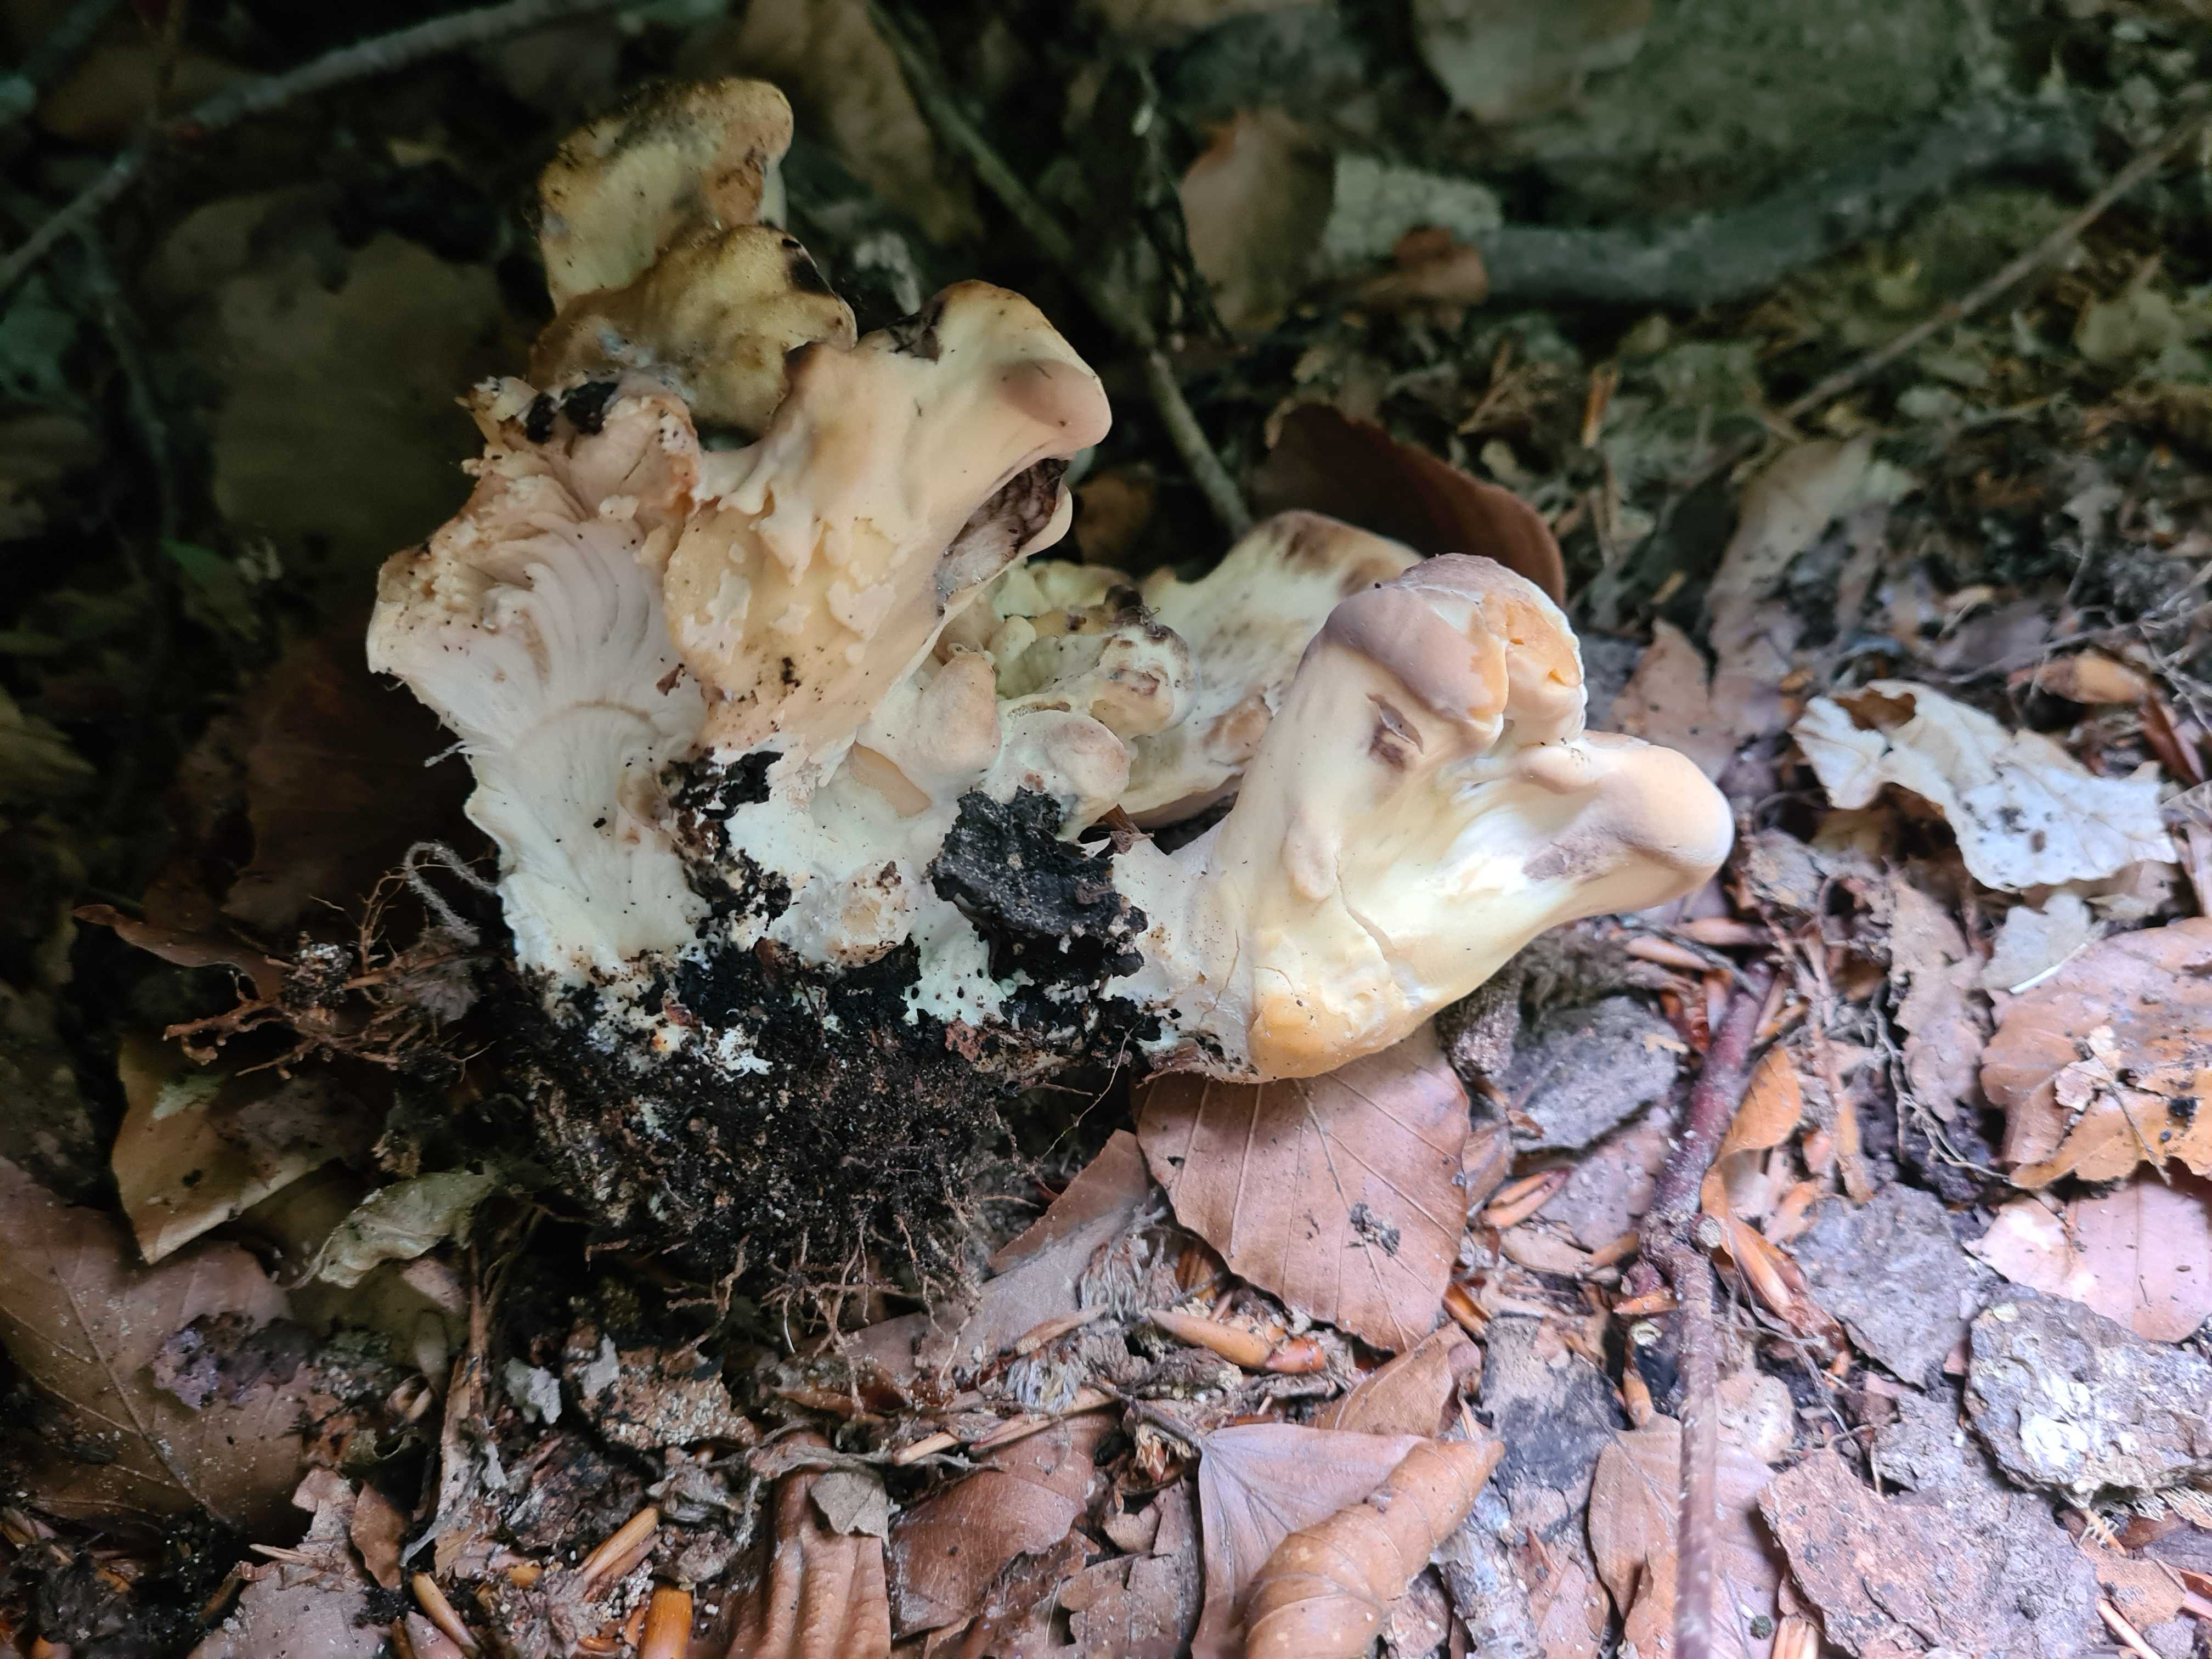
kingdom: Fungi
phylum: Basidiomycota
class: Agaricomycetes
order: Polyporales
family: Meripilaceae
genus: Meripilus
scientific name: Meripilus giganteus
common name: kæmpeporesvamp
